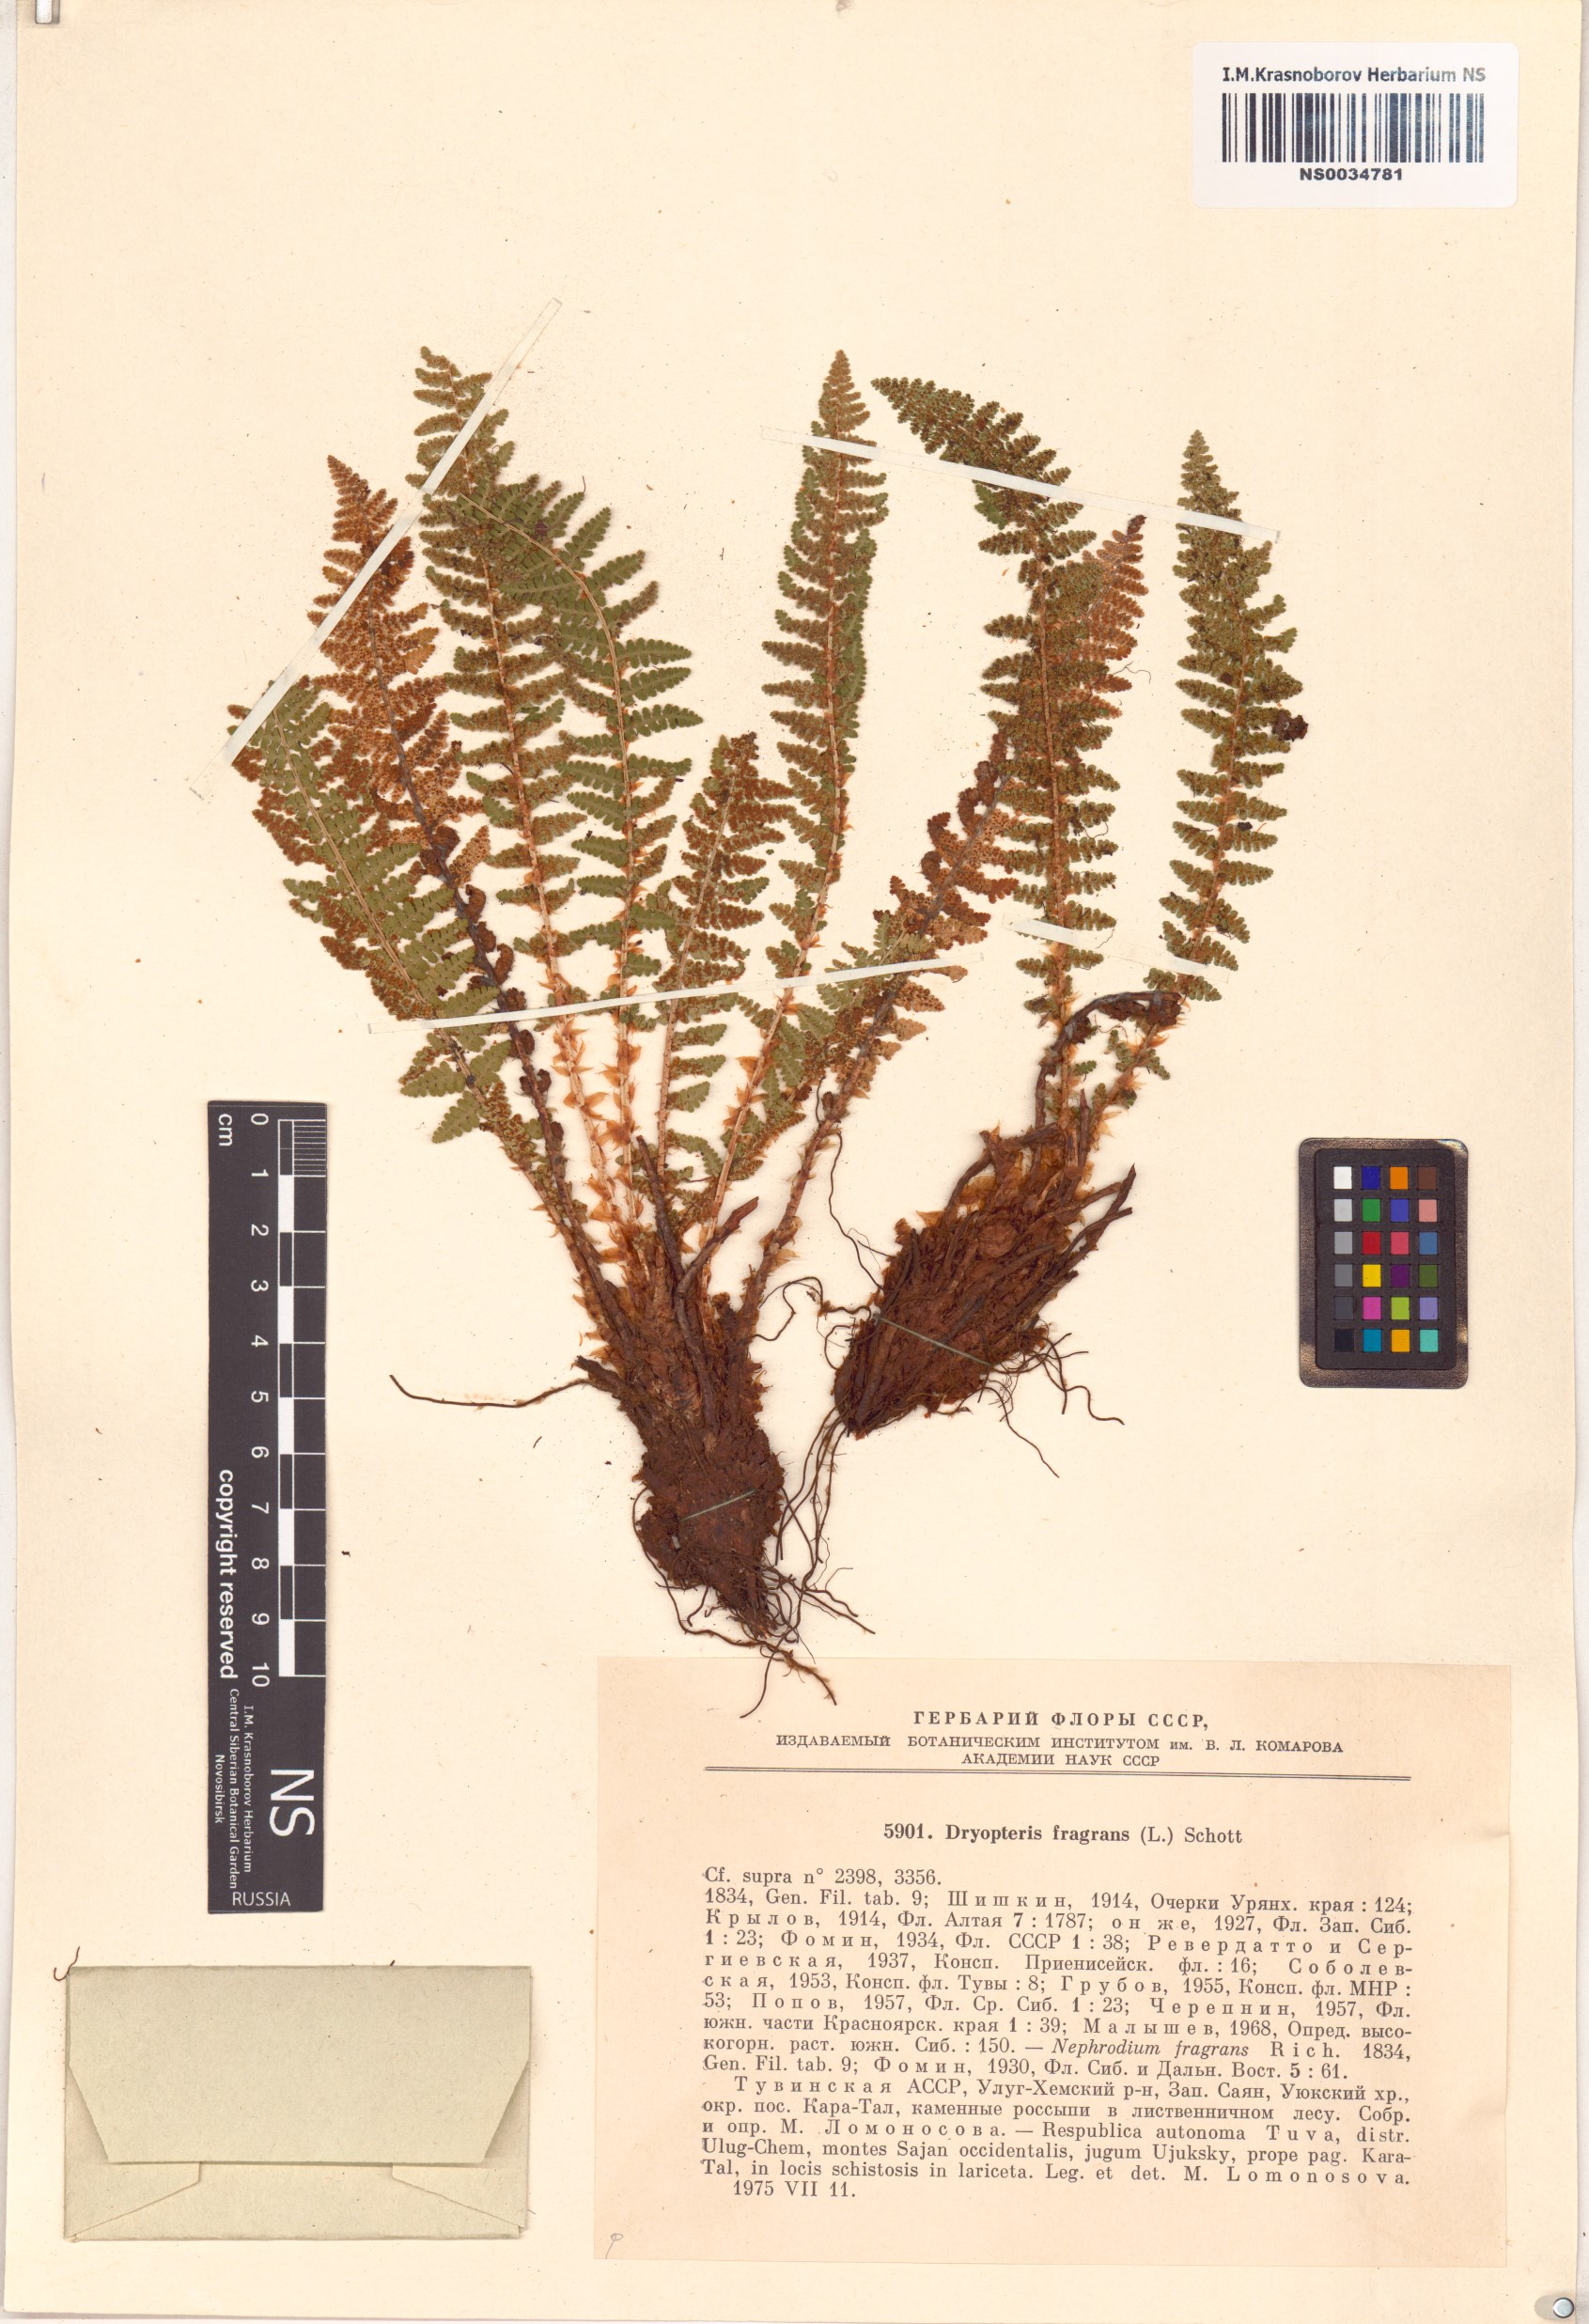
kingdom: Plantae
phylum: Tracheophyta
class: Polypodiopsida
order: Polypodiales
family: Dryopteridaceae
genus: Dryopteris
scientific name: Dryopteris fragrans
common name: Fragrant wood fern
